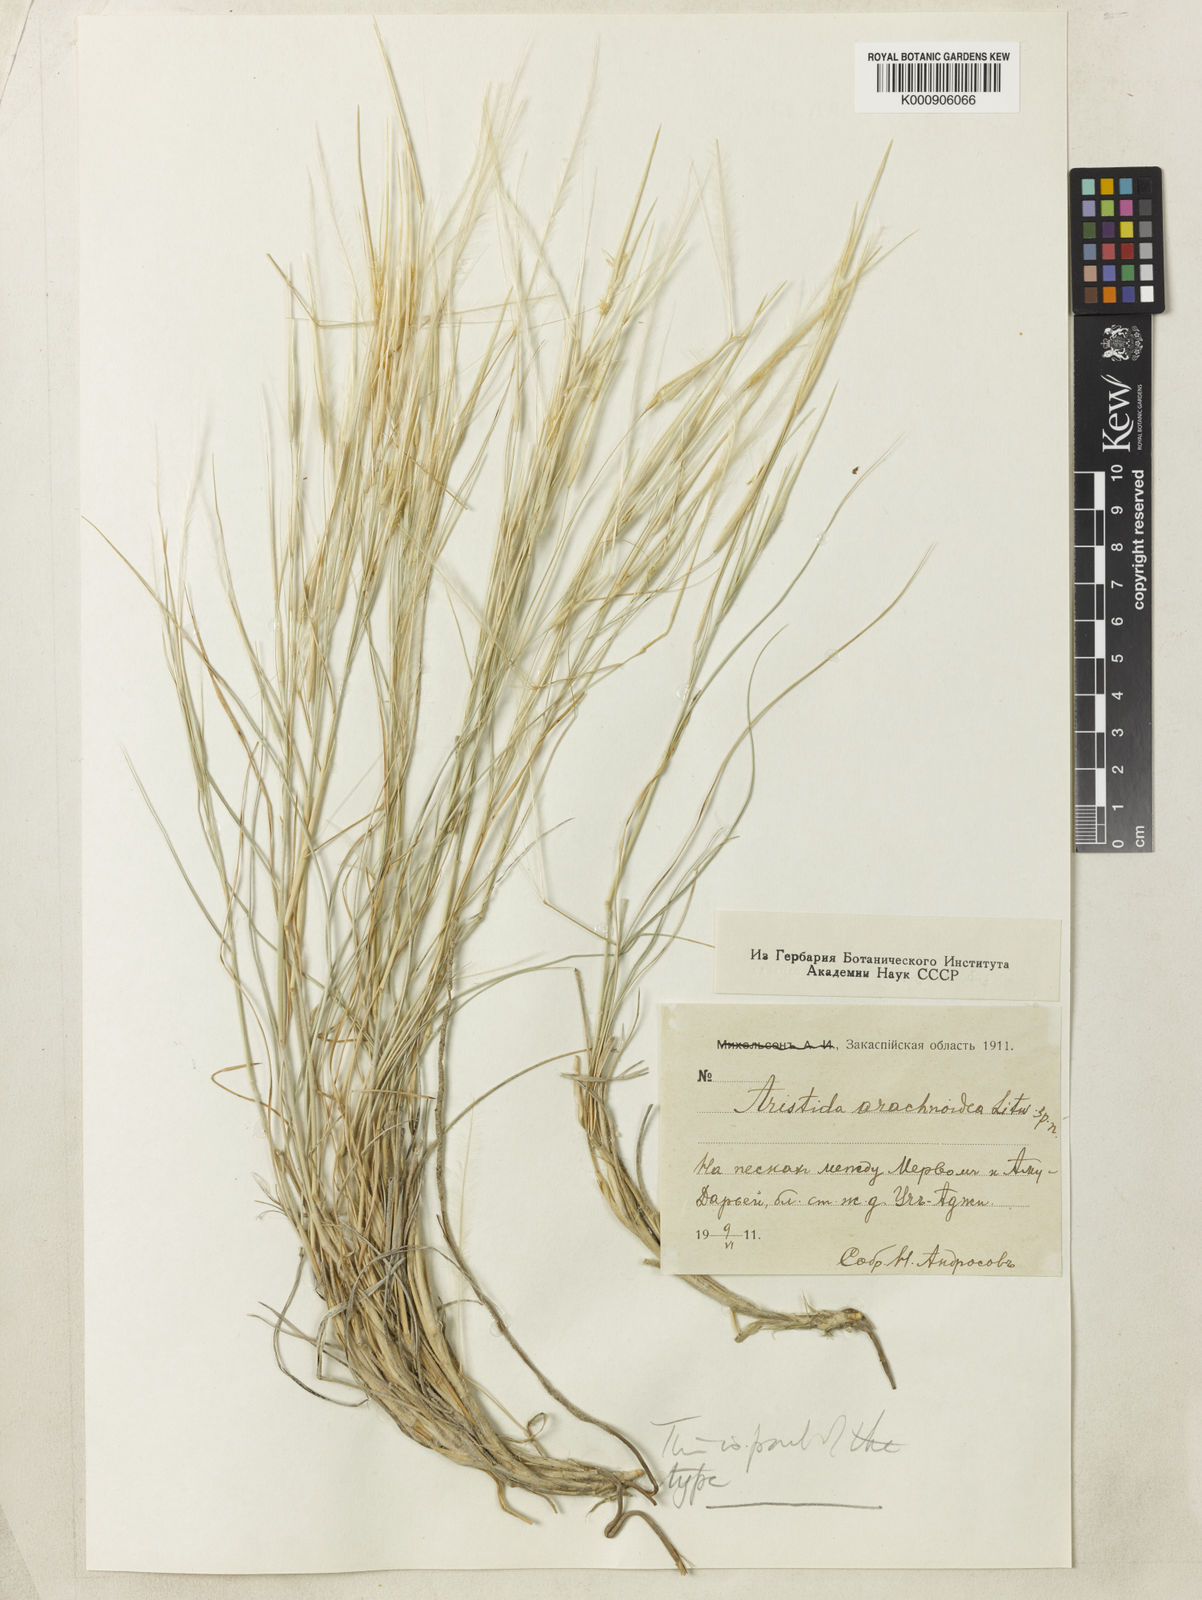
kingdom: Plantae
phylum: Tracheophyta
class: Liliopsida
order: Poales
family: Poaceae
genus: Stipagrostis
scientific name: Stipagrostis arachnoidea
